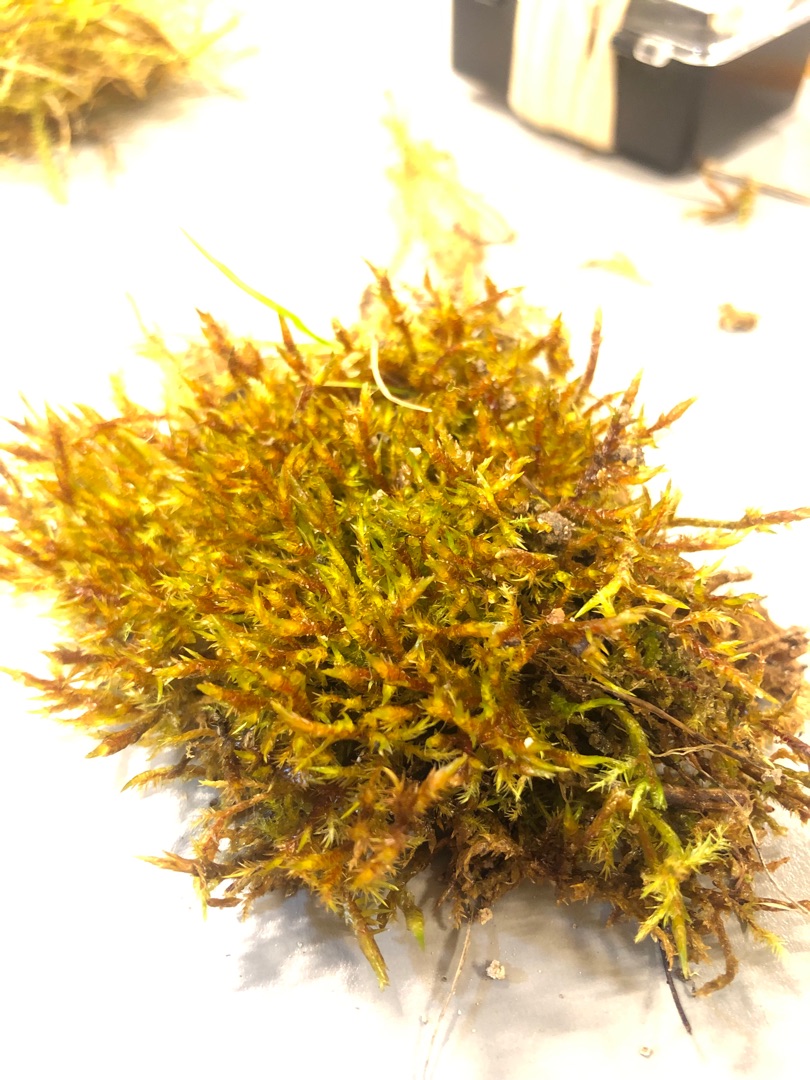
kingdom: Plantae
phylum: Bryophyta
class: Bryopsida
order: Hypnales
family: Pylaisiaceae
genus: Calliergonella
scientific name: Calliergonella cuspidata
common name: Spids spydmos
